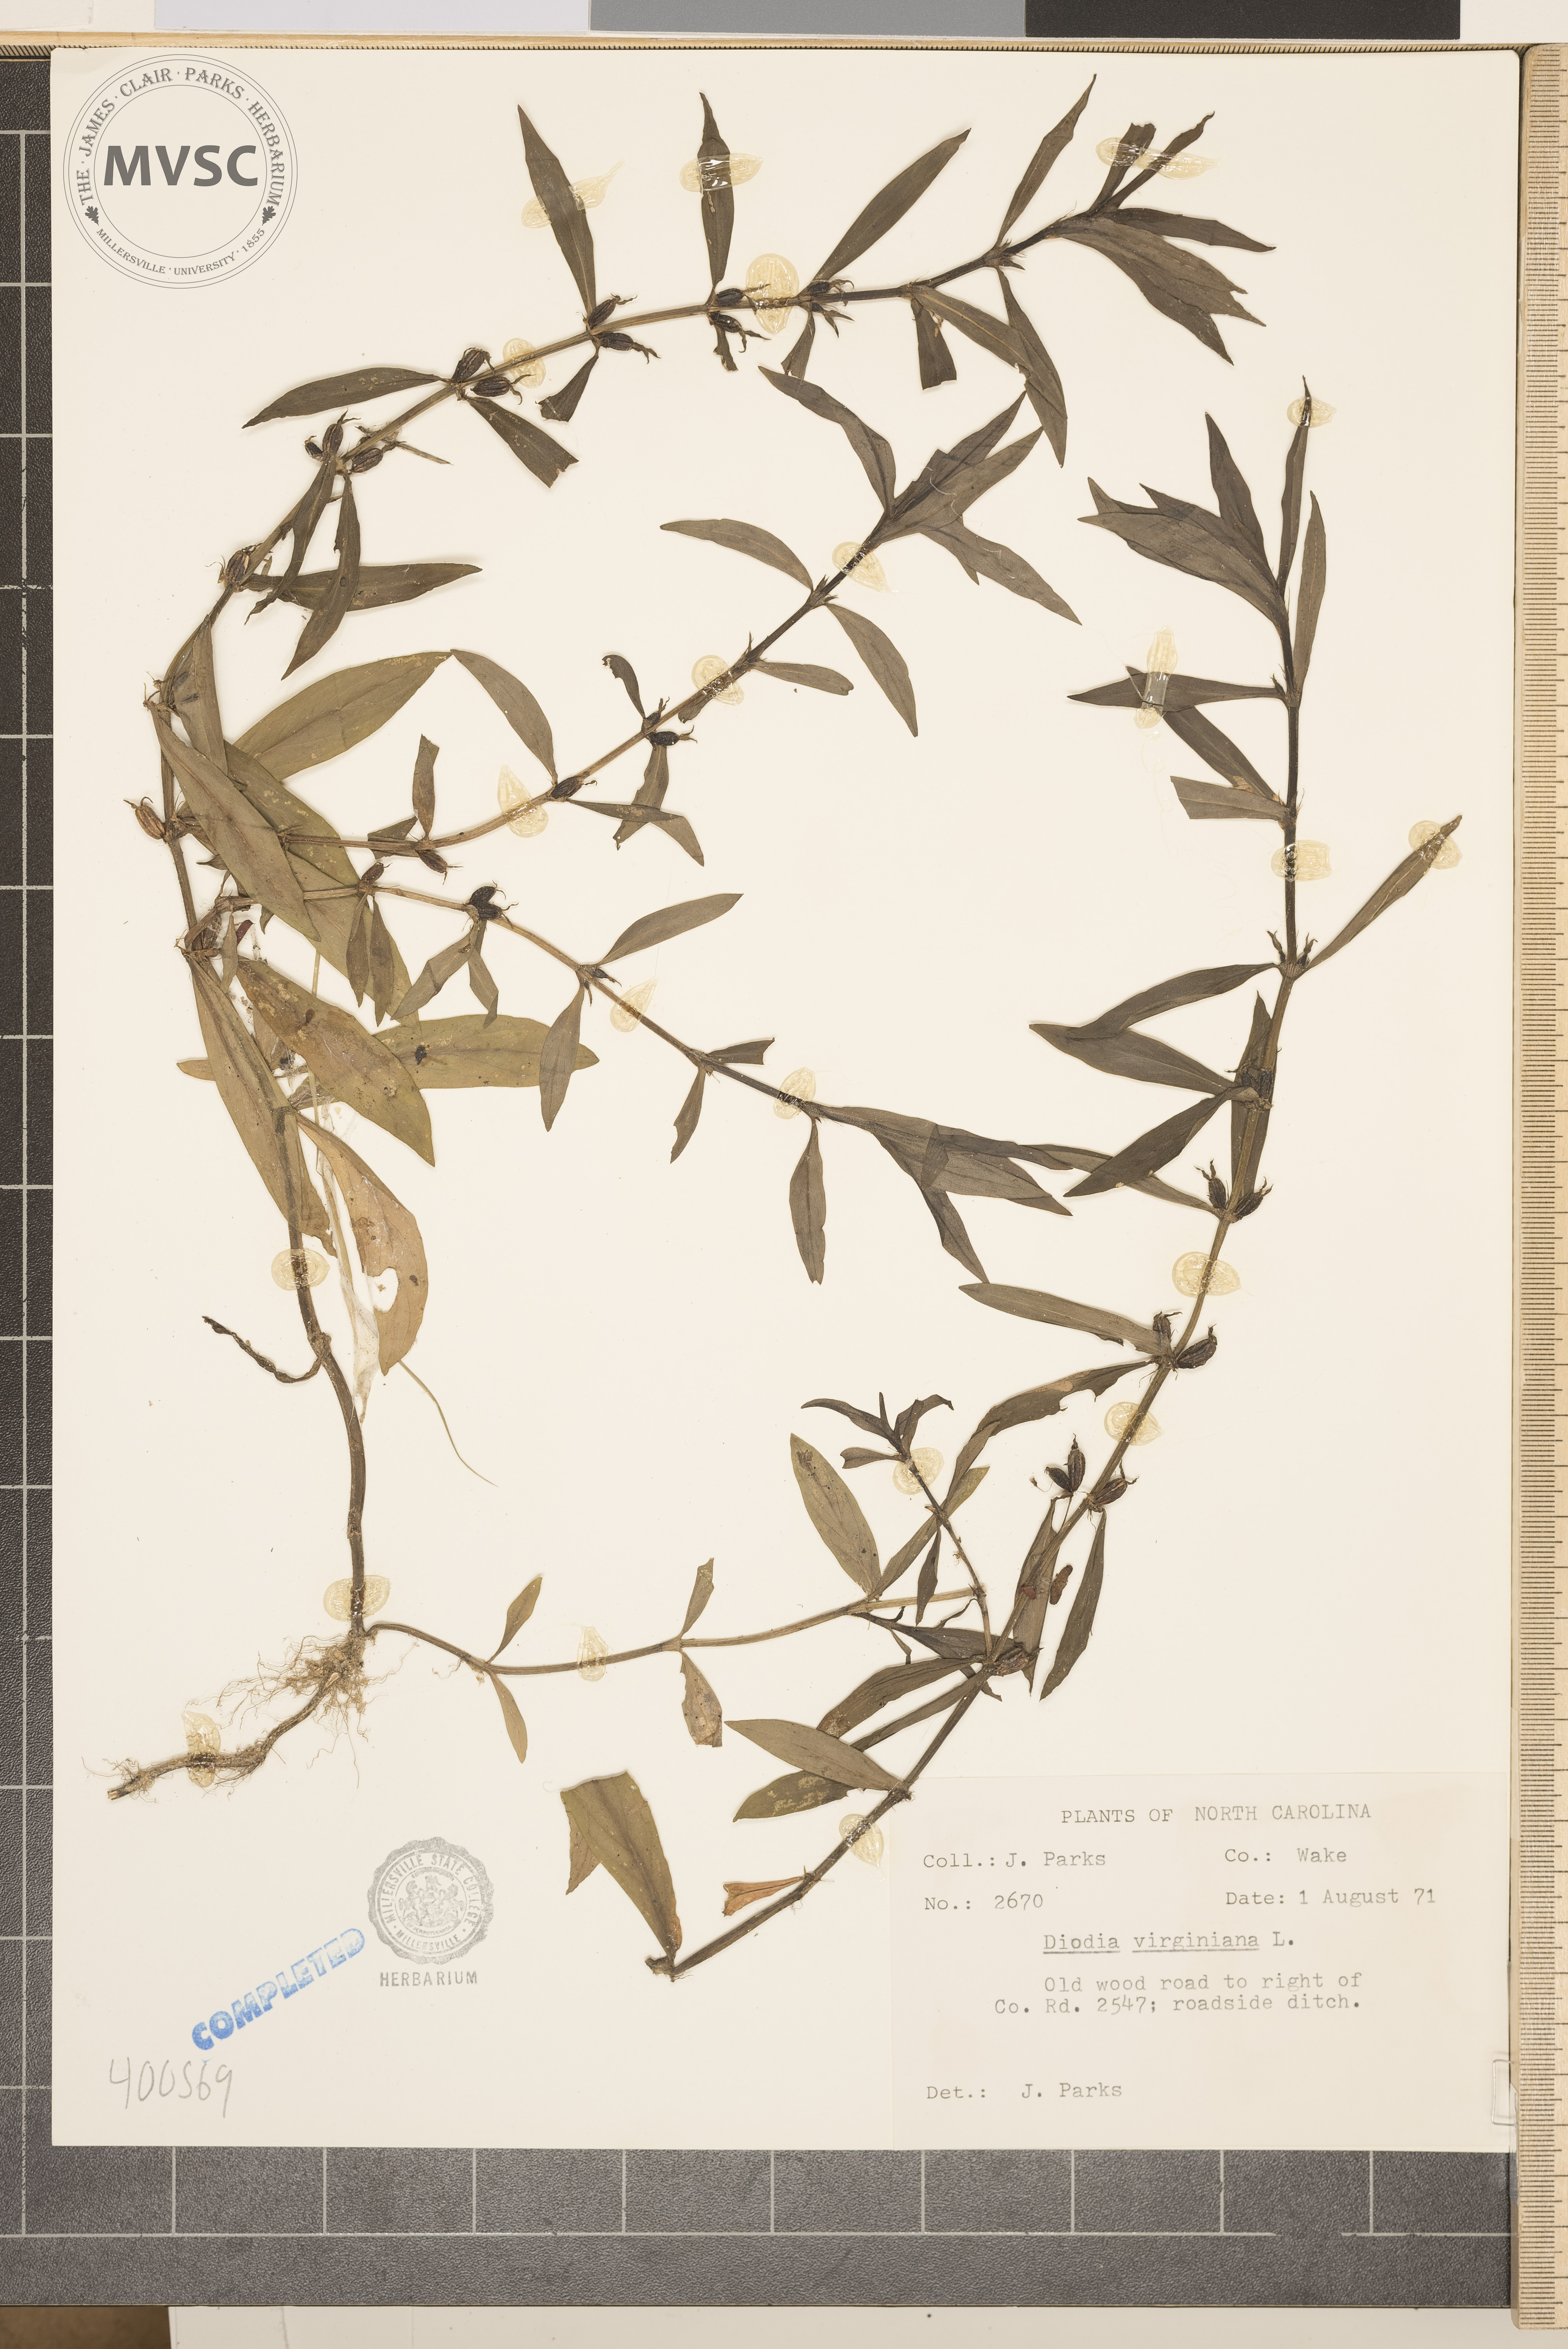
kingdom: Plantae
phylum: Tracheophyta
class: Magnoliopsida
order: Gentianales
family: Rubiaceae
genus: Diodia
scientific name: Diodia virginiana
